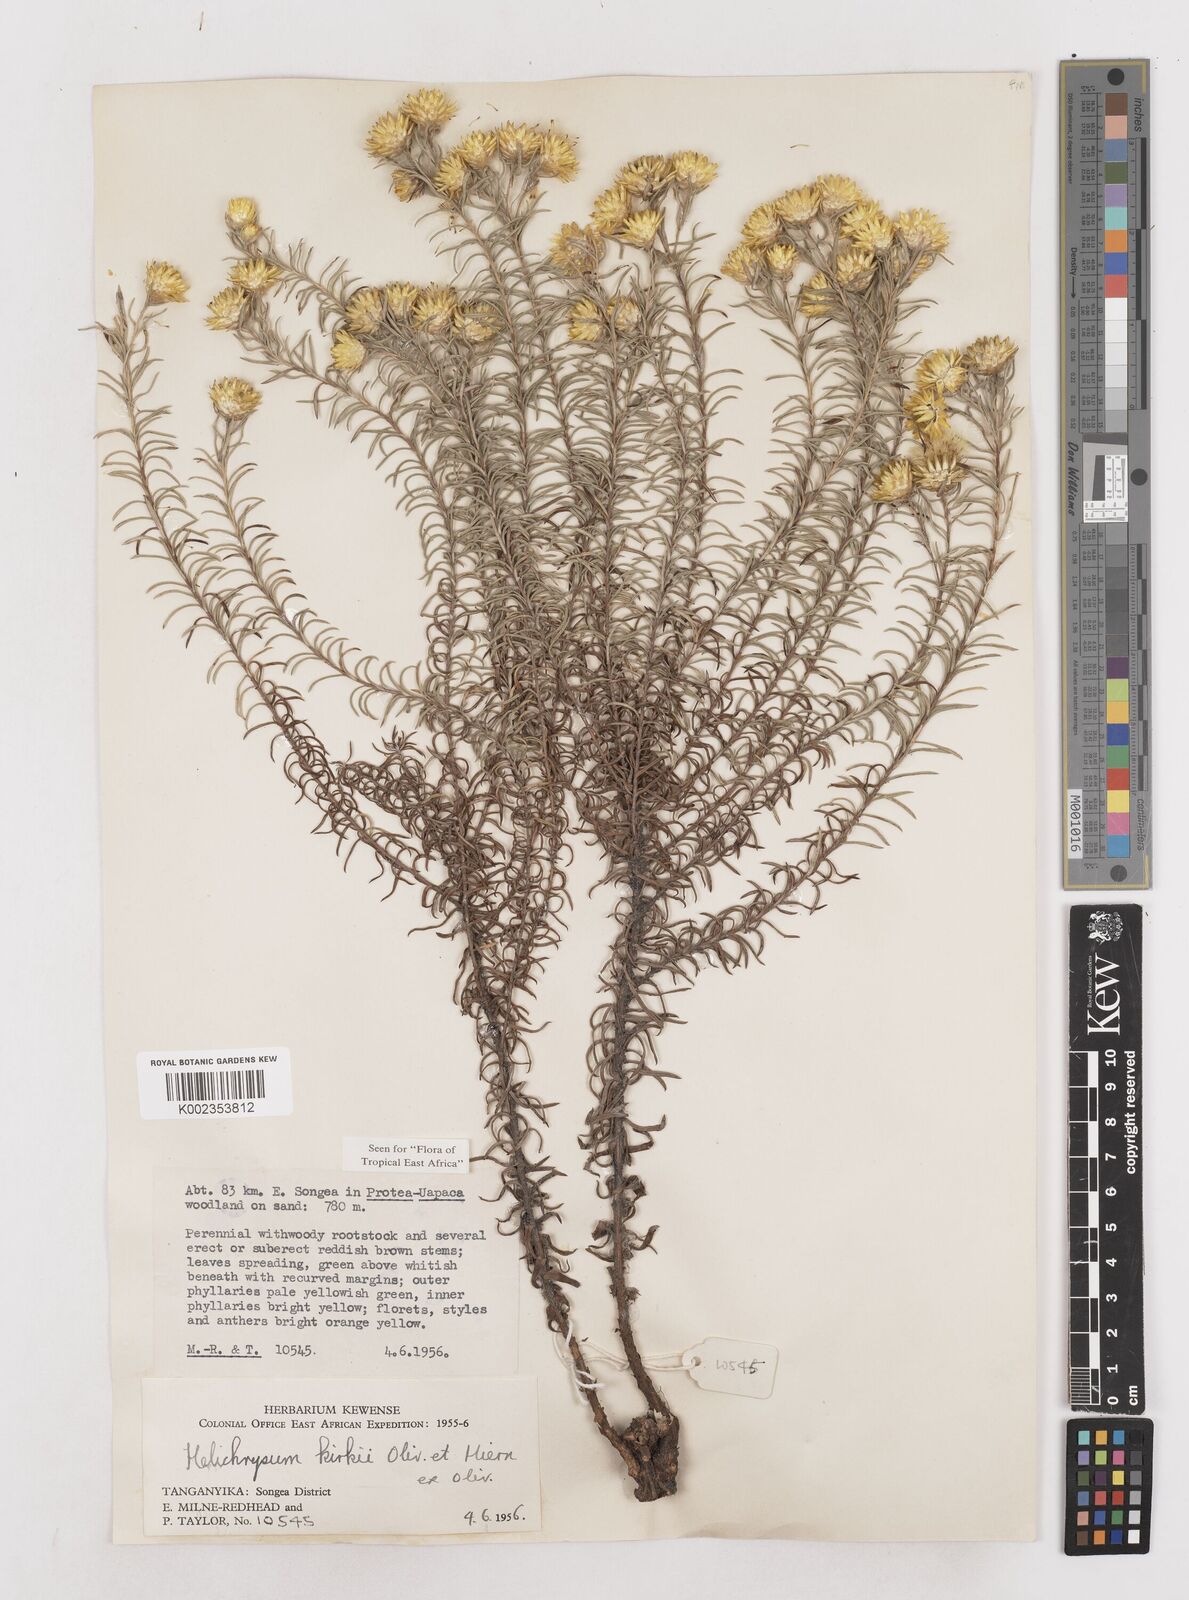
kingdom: Plantae
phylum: Tracheophyta
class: Magnoliopsida
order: Asterales
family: Asteraceae
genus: Helichrysum
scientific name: Helichrysum kirkii
